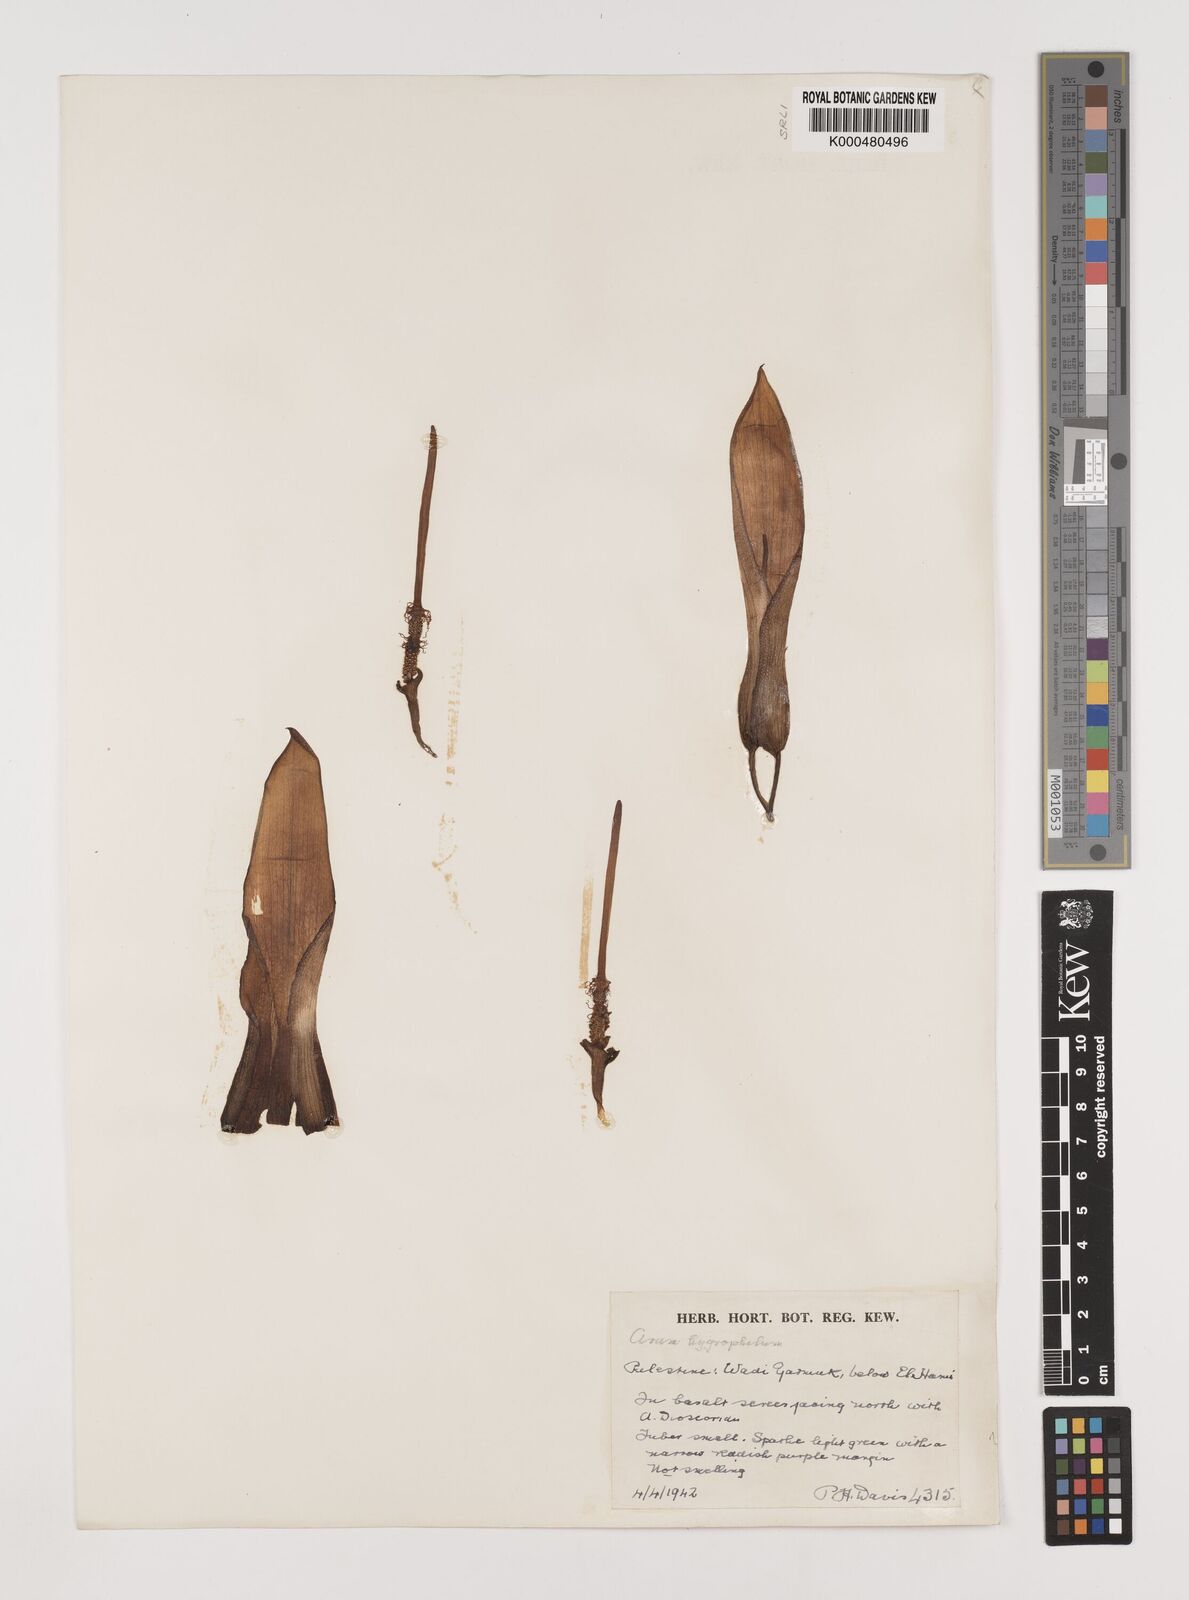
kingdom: Plantae
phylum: Tracheophyta
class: Liliopsida
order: Alismatales
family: Araceae
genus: Arum
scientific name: Arum hygrophilum
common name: Water arum
